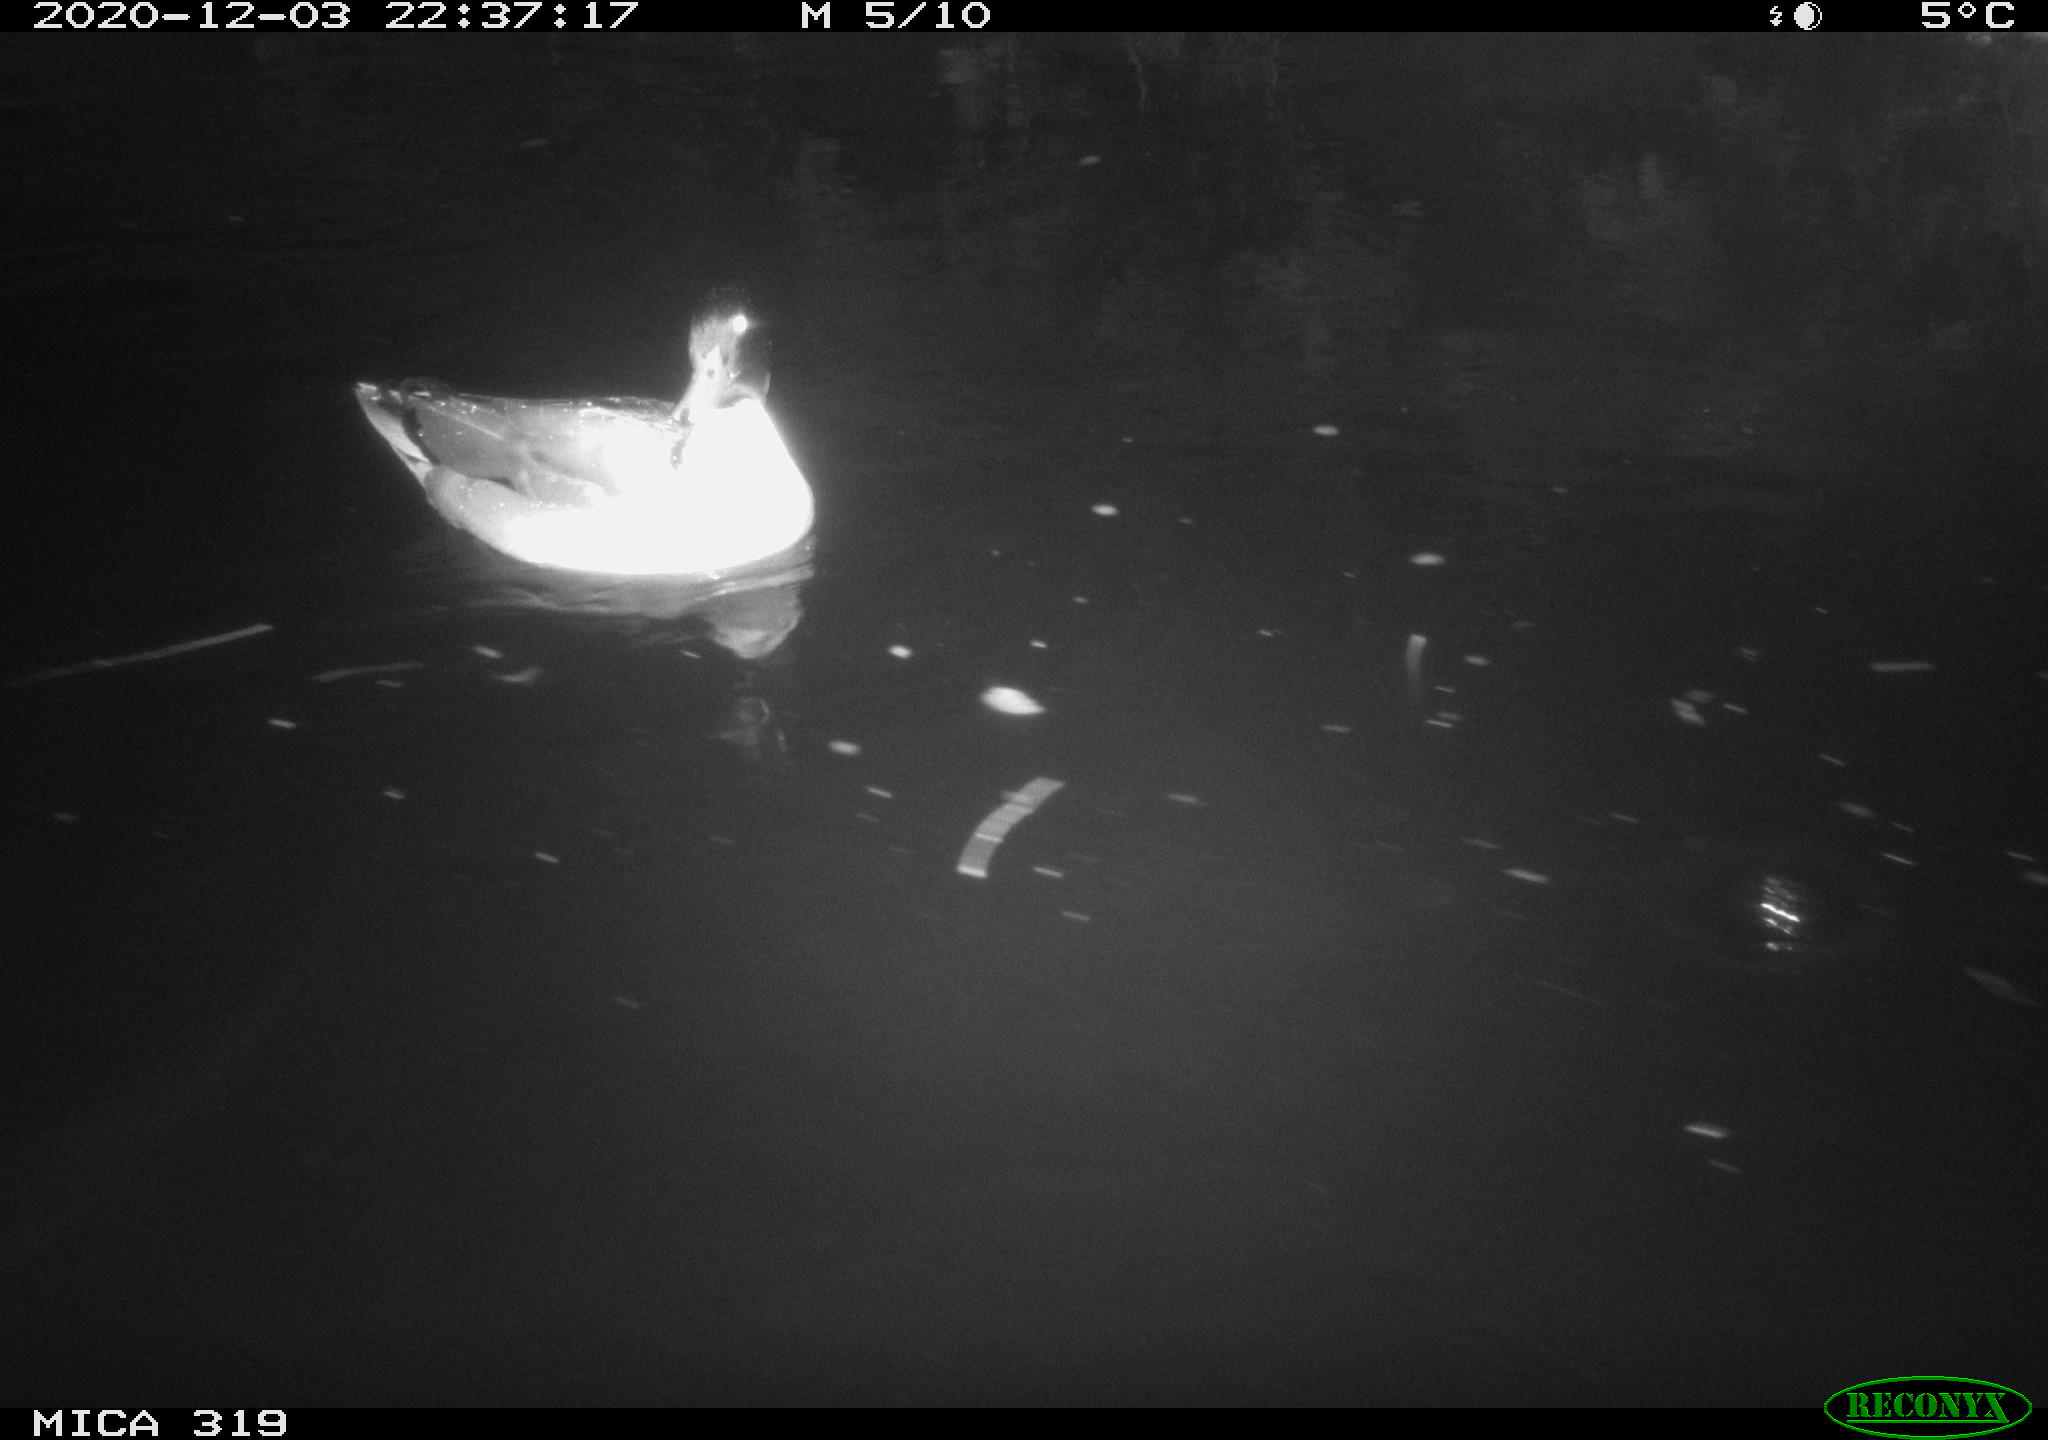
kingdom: Animalia
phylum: Chordata
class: Aves
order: Anseriformes
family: Anatidae
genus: Mareca
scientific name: Mareca strepera
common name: Gadwall
